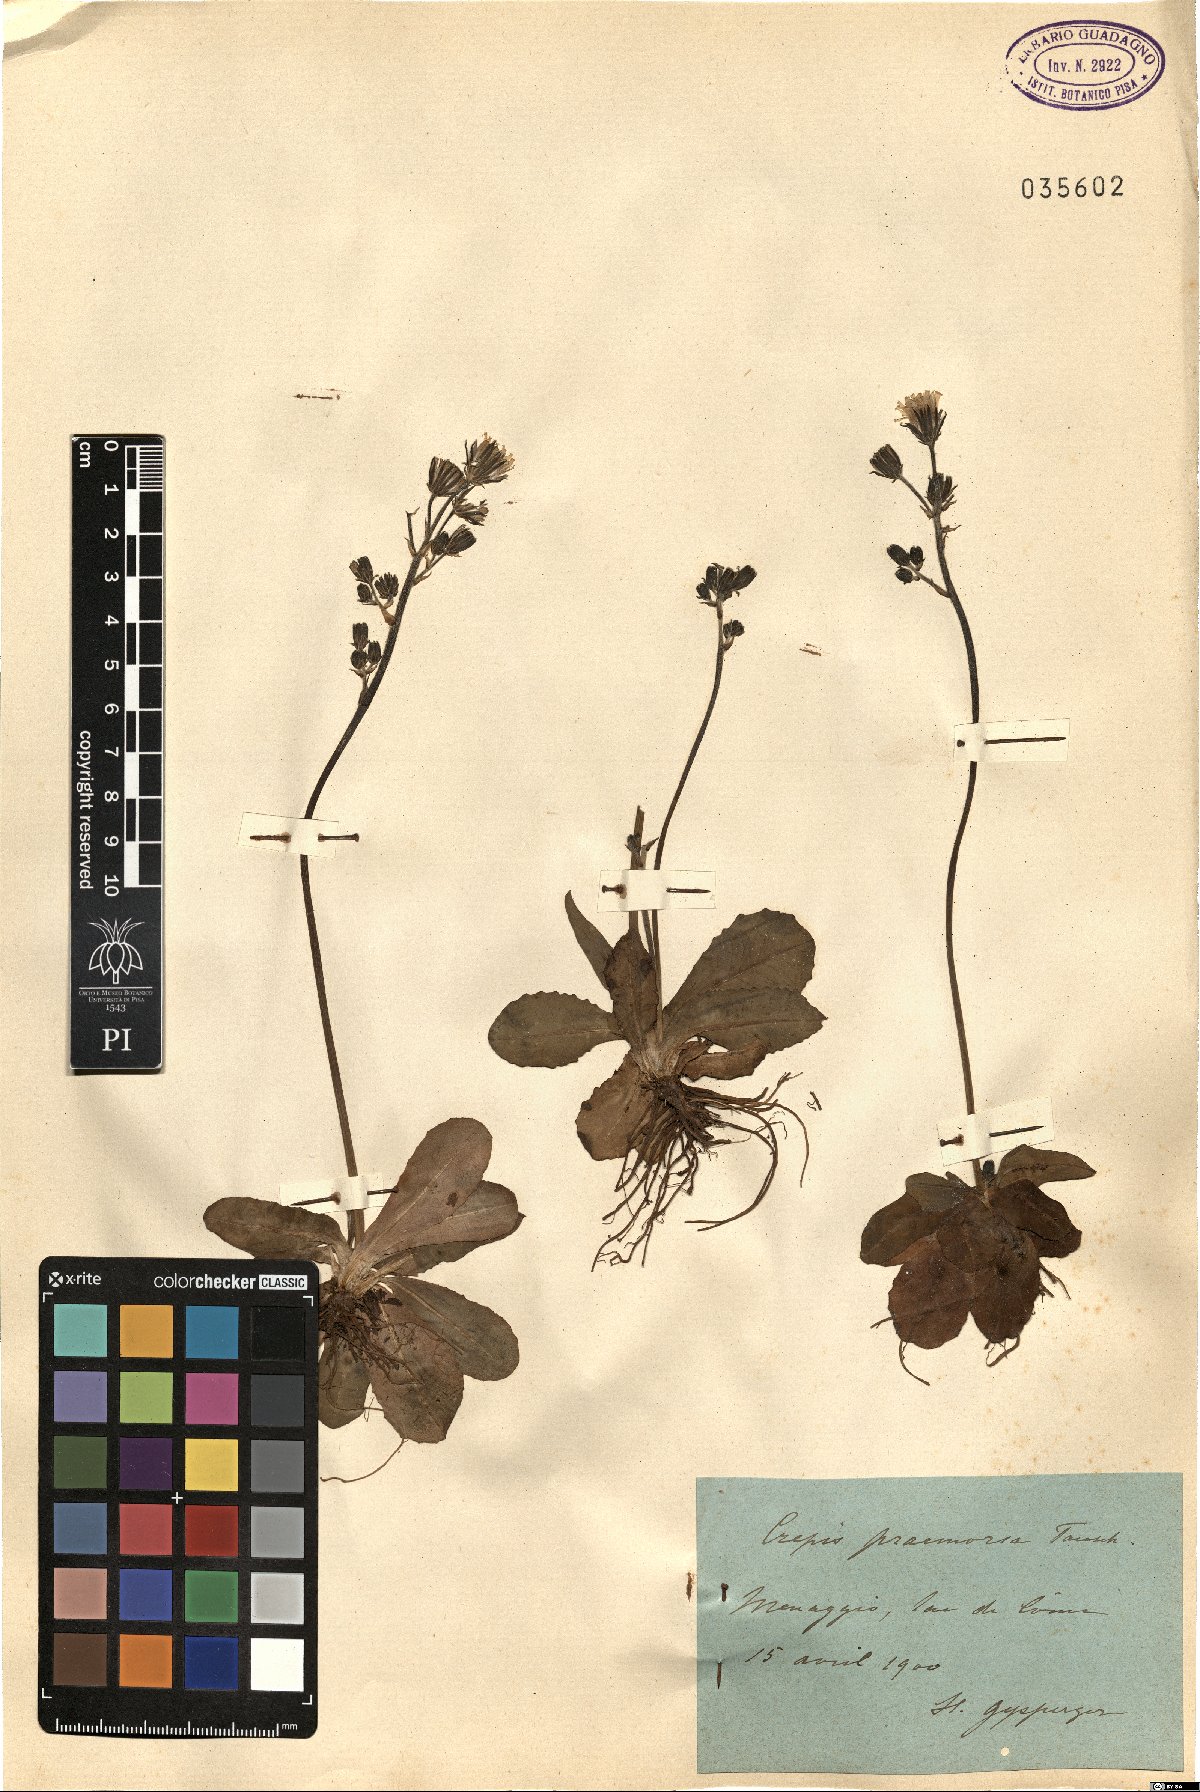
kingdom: Plantae
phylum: Tracheophyta
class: Magnoliopsida
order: Asterales
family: Asteraceae
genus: Crepis
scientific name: Crepis praemorsa
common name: Leafless hawk's-beard
